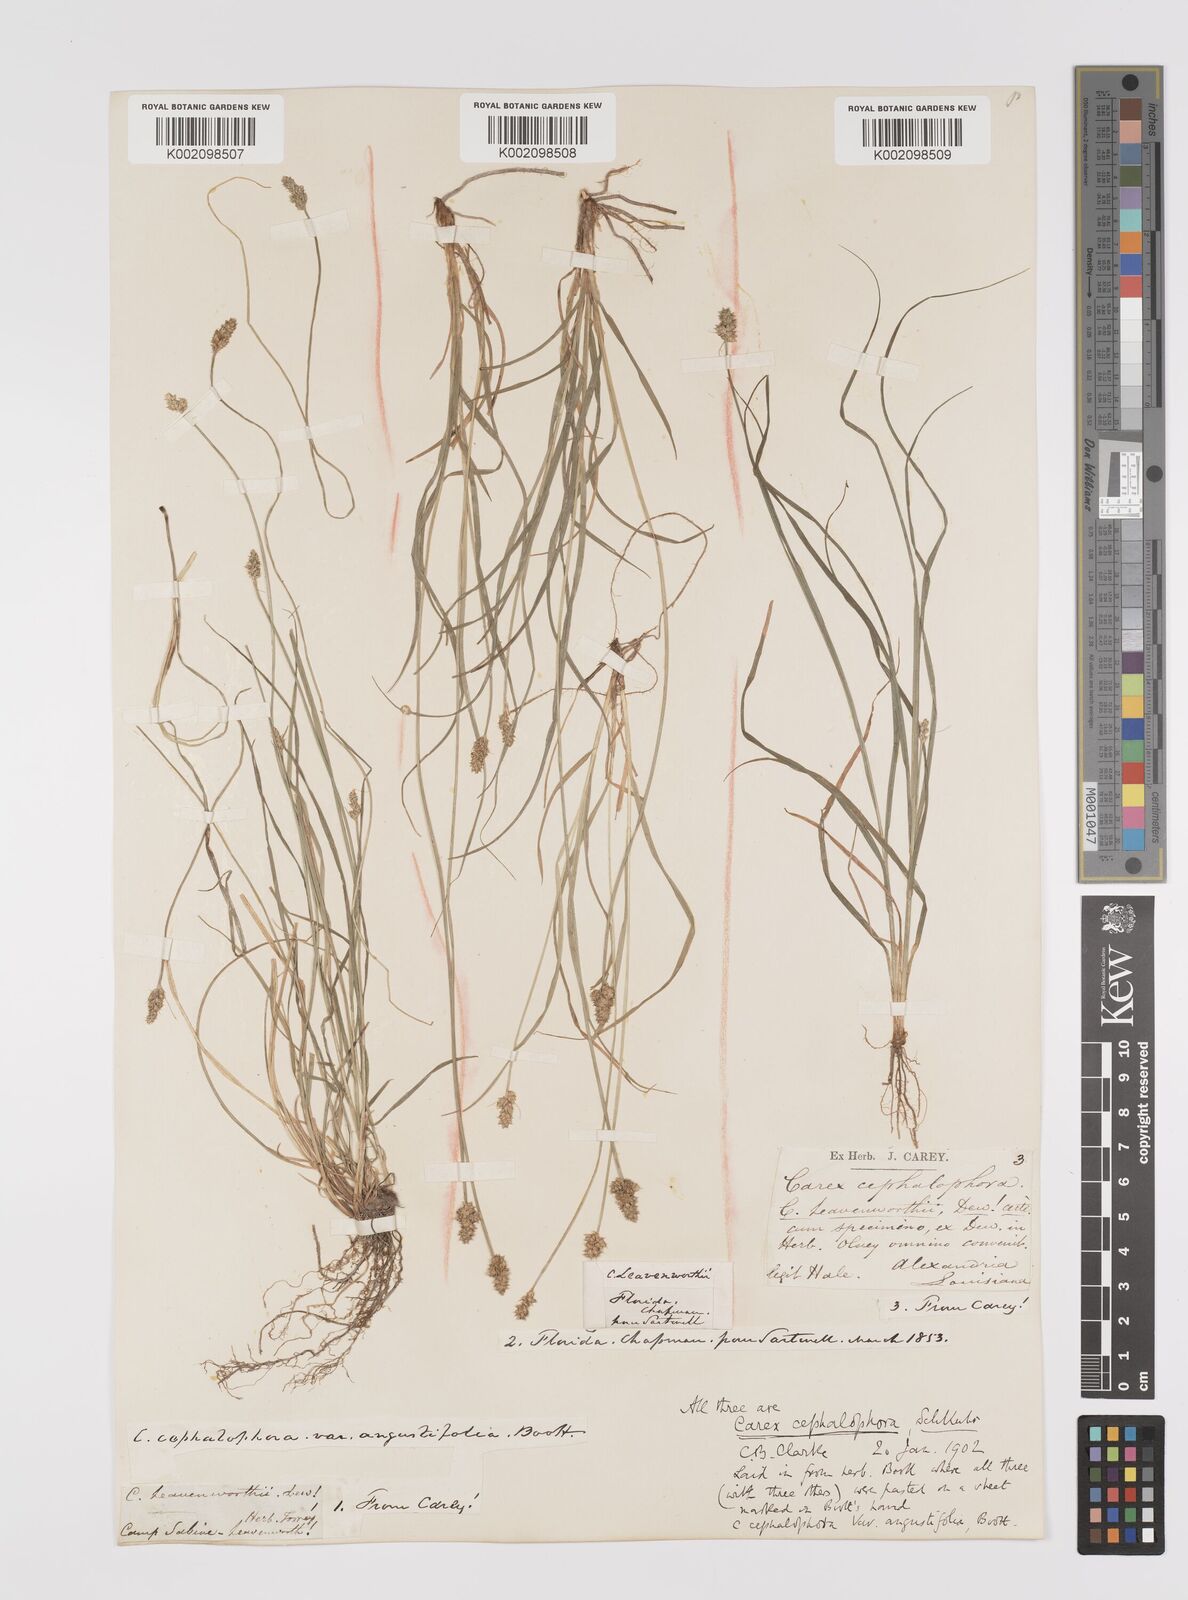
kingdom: Plantae
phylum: Tracheophyta
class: Liliopsida
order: Poales
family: Cyperaceae
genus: Carex
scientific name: Carex cephalophora
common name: Oval-headed sedge
